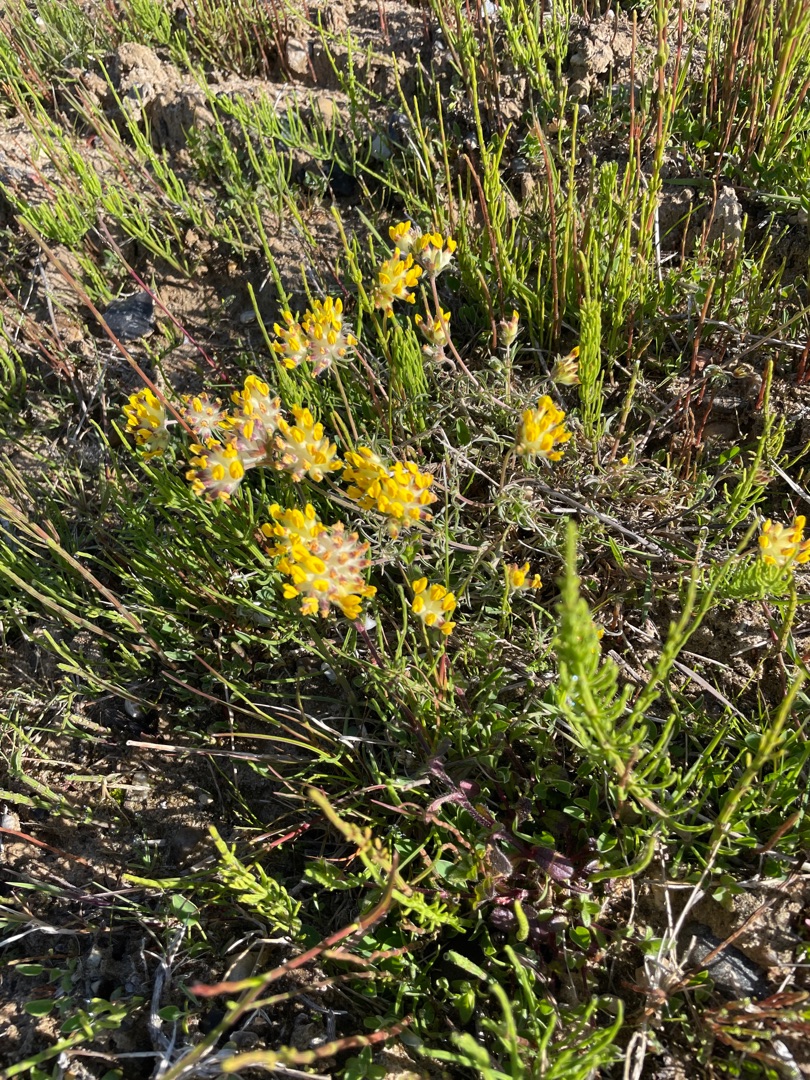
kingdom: Plantae
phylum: Tracheophyta
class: Magnoliopsida
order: Fabales
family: Fabaceae
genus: Anthyllis
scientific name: Anthyllis vulneraria
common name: Rundbælg
